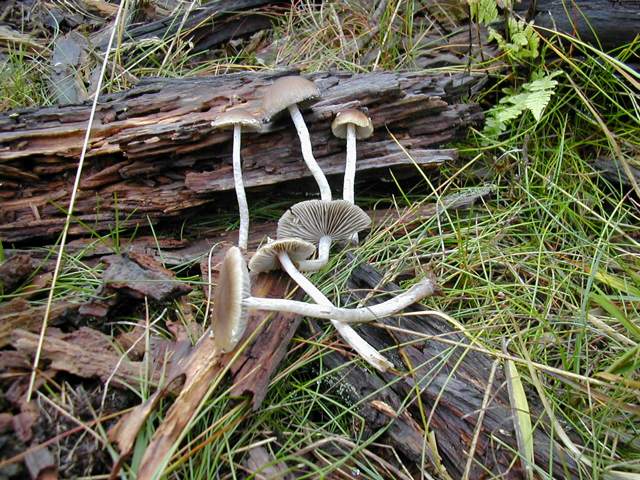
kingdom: Fungi
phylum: Basidiomycota
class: Agaricomycetes
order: Agaricales
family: Psathyrellaceae
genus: Psathyrella
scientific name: Psathyrella fibrillosa
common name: almindelig mørkhat
